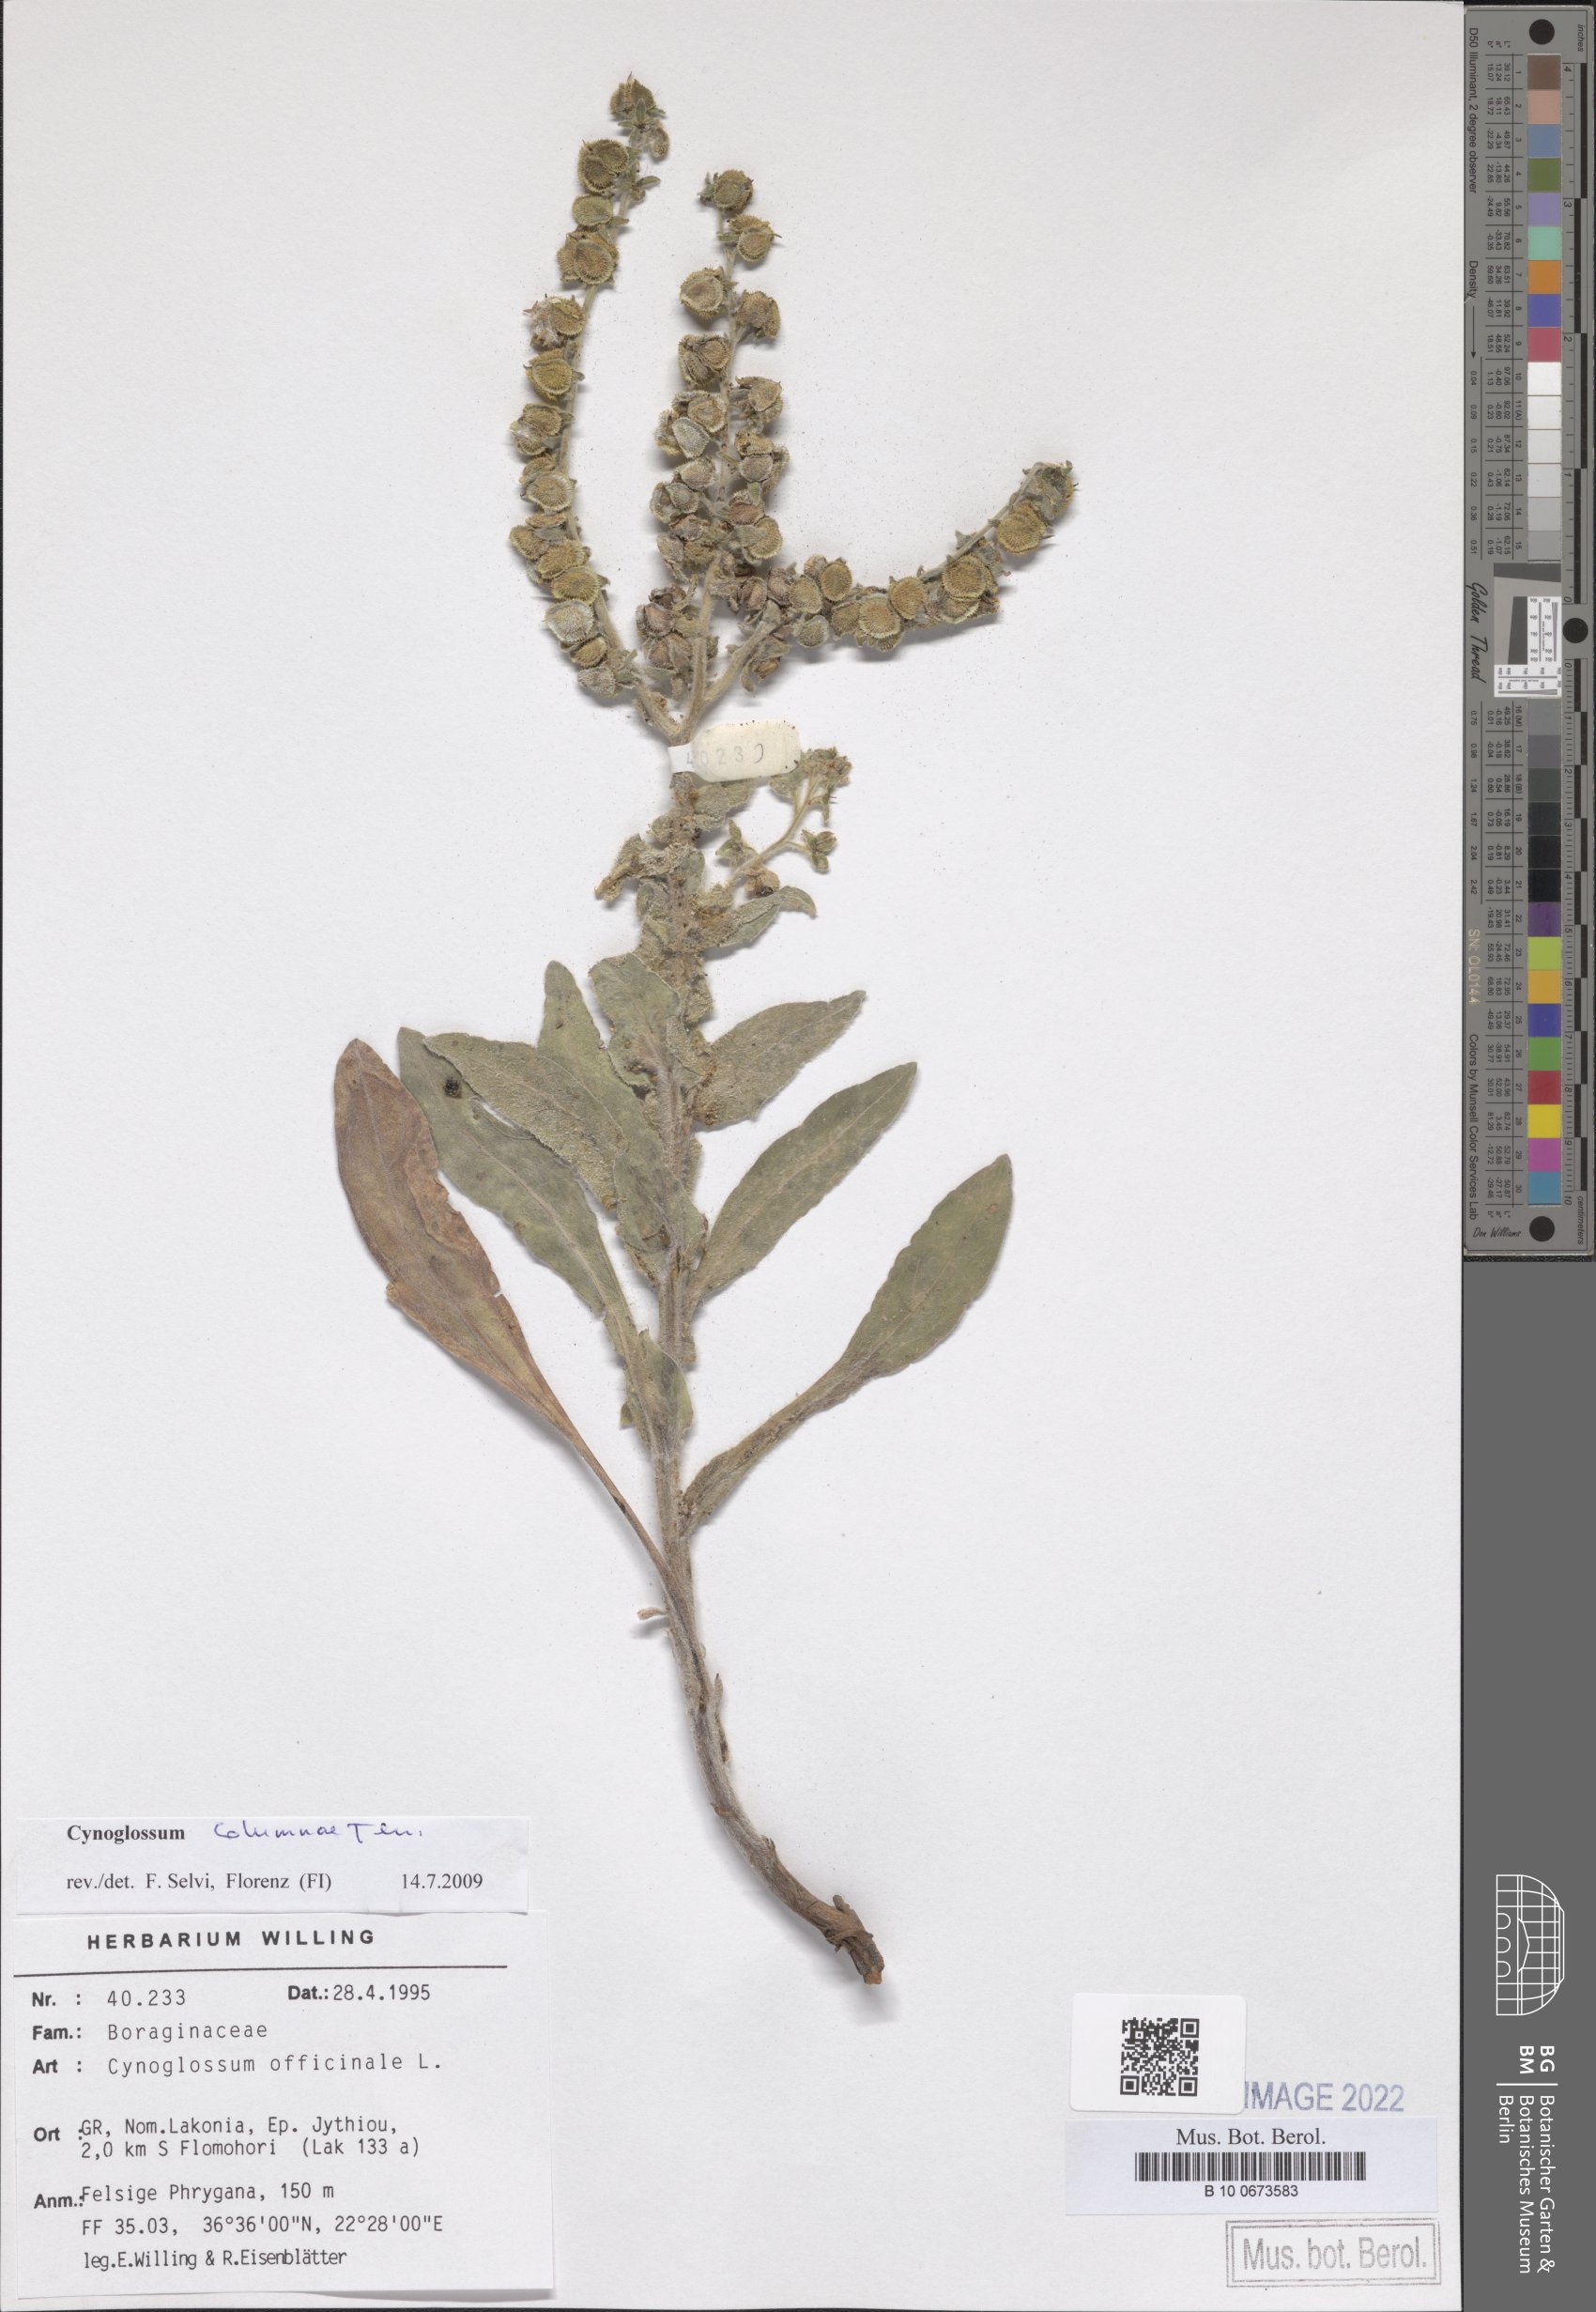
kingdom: Plantae
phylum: Tracheophyta
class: Magnoliopsida
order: Boraginales
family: Boraginaceae
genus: Rindera
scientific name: Rindera columnae
